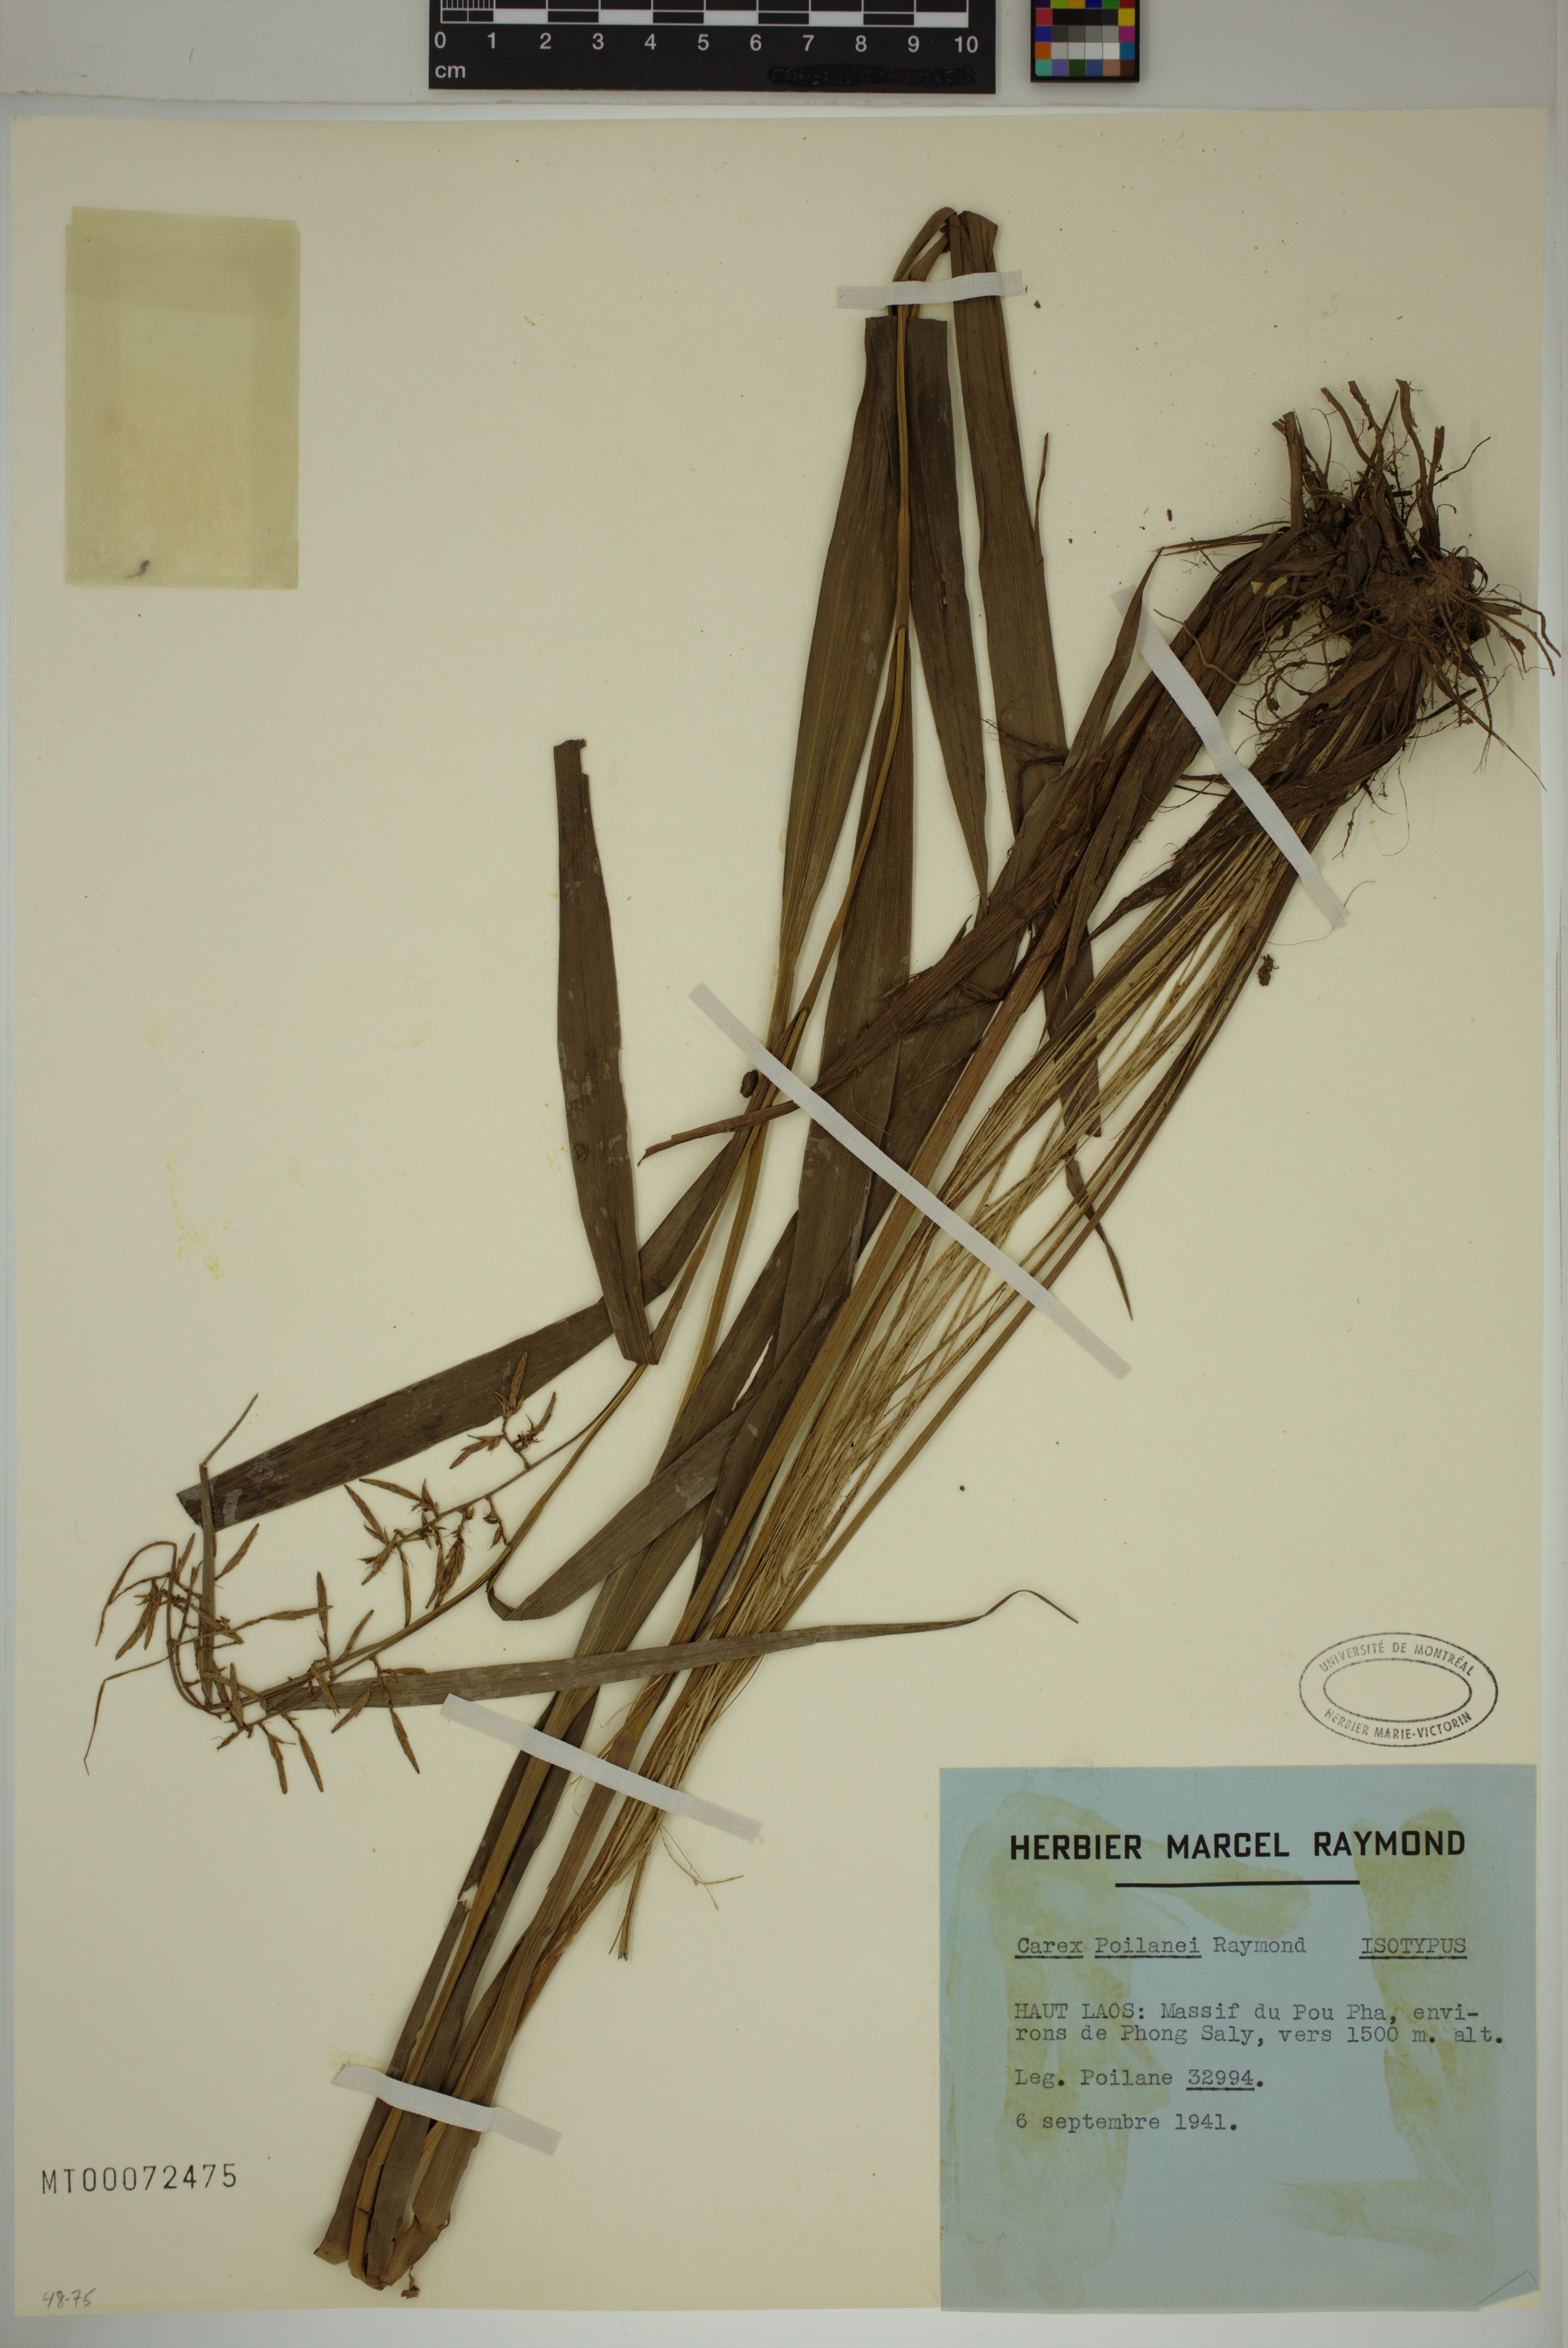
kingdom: Plantae
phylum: Tracheophyta
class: Liliopsida
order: Poales
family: Cyperaceae
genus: Carex
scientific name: Carex poilanei
